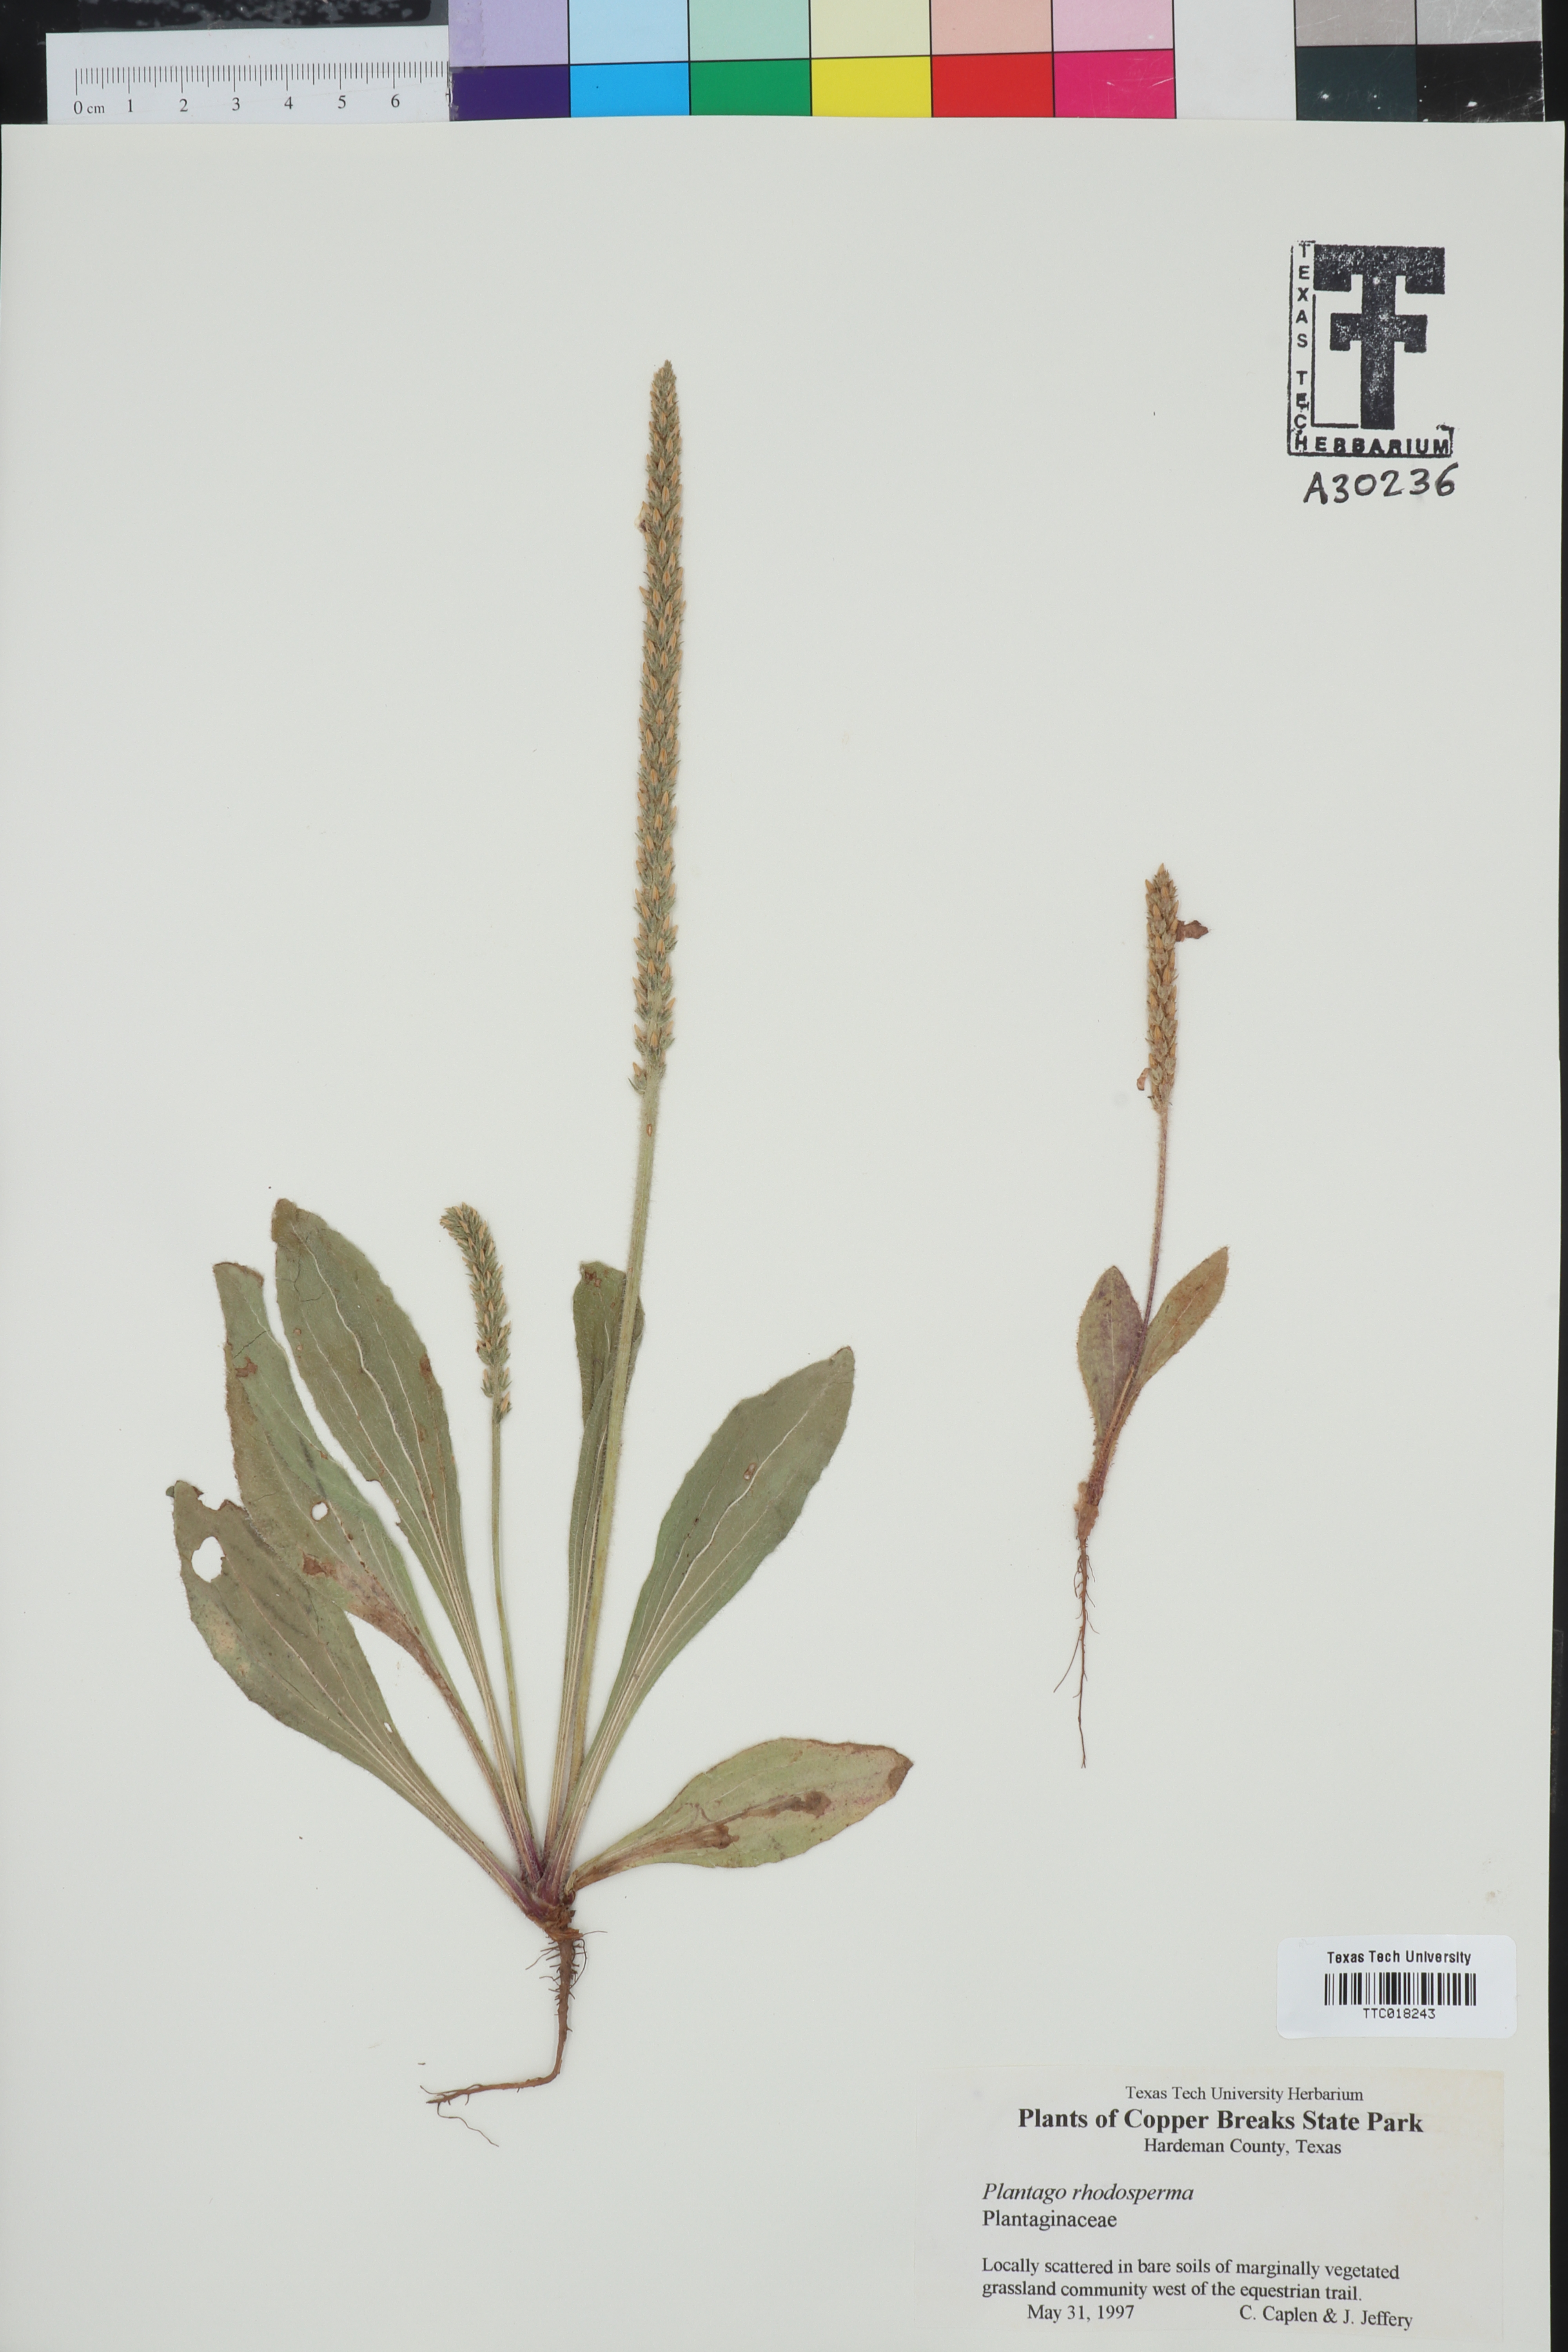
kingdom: Plantae
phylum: Tracheophyta
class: Magnoliopsida
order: Lamiales
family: Plantaginaceae
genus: Plantago
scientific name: Plantago rhodosperma
